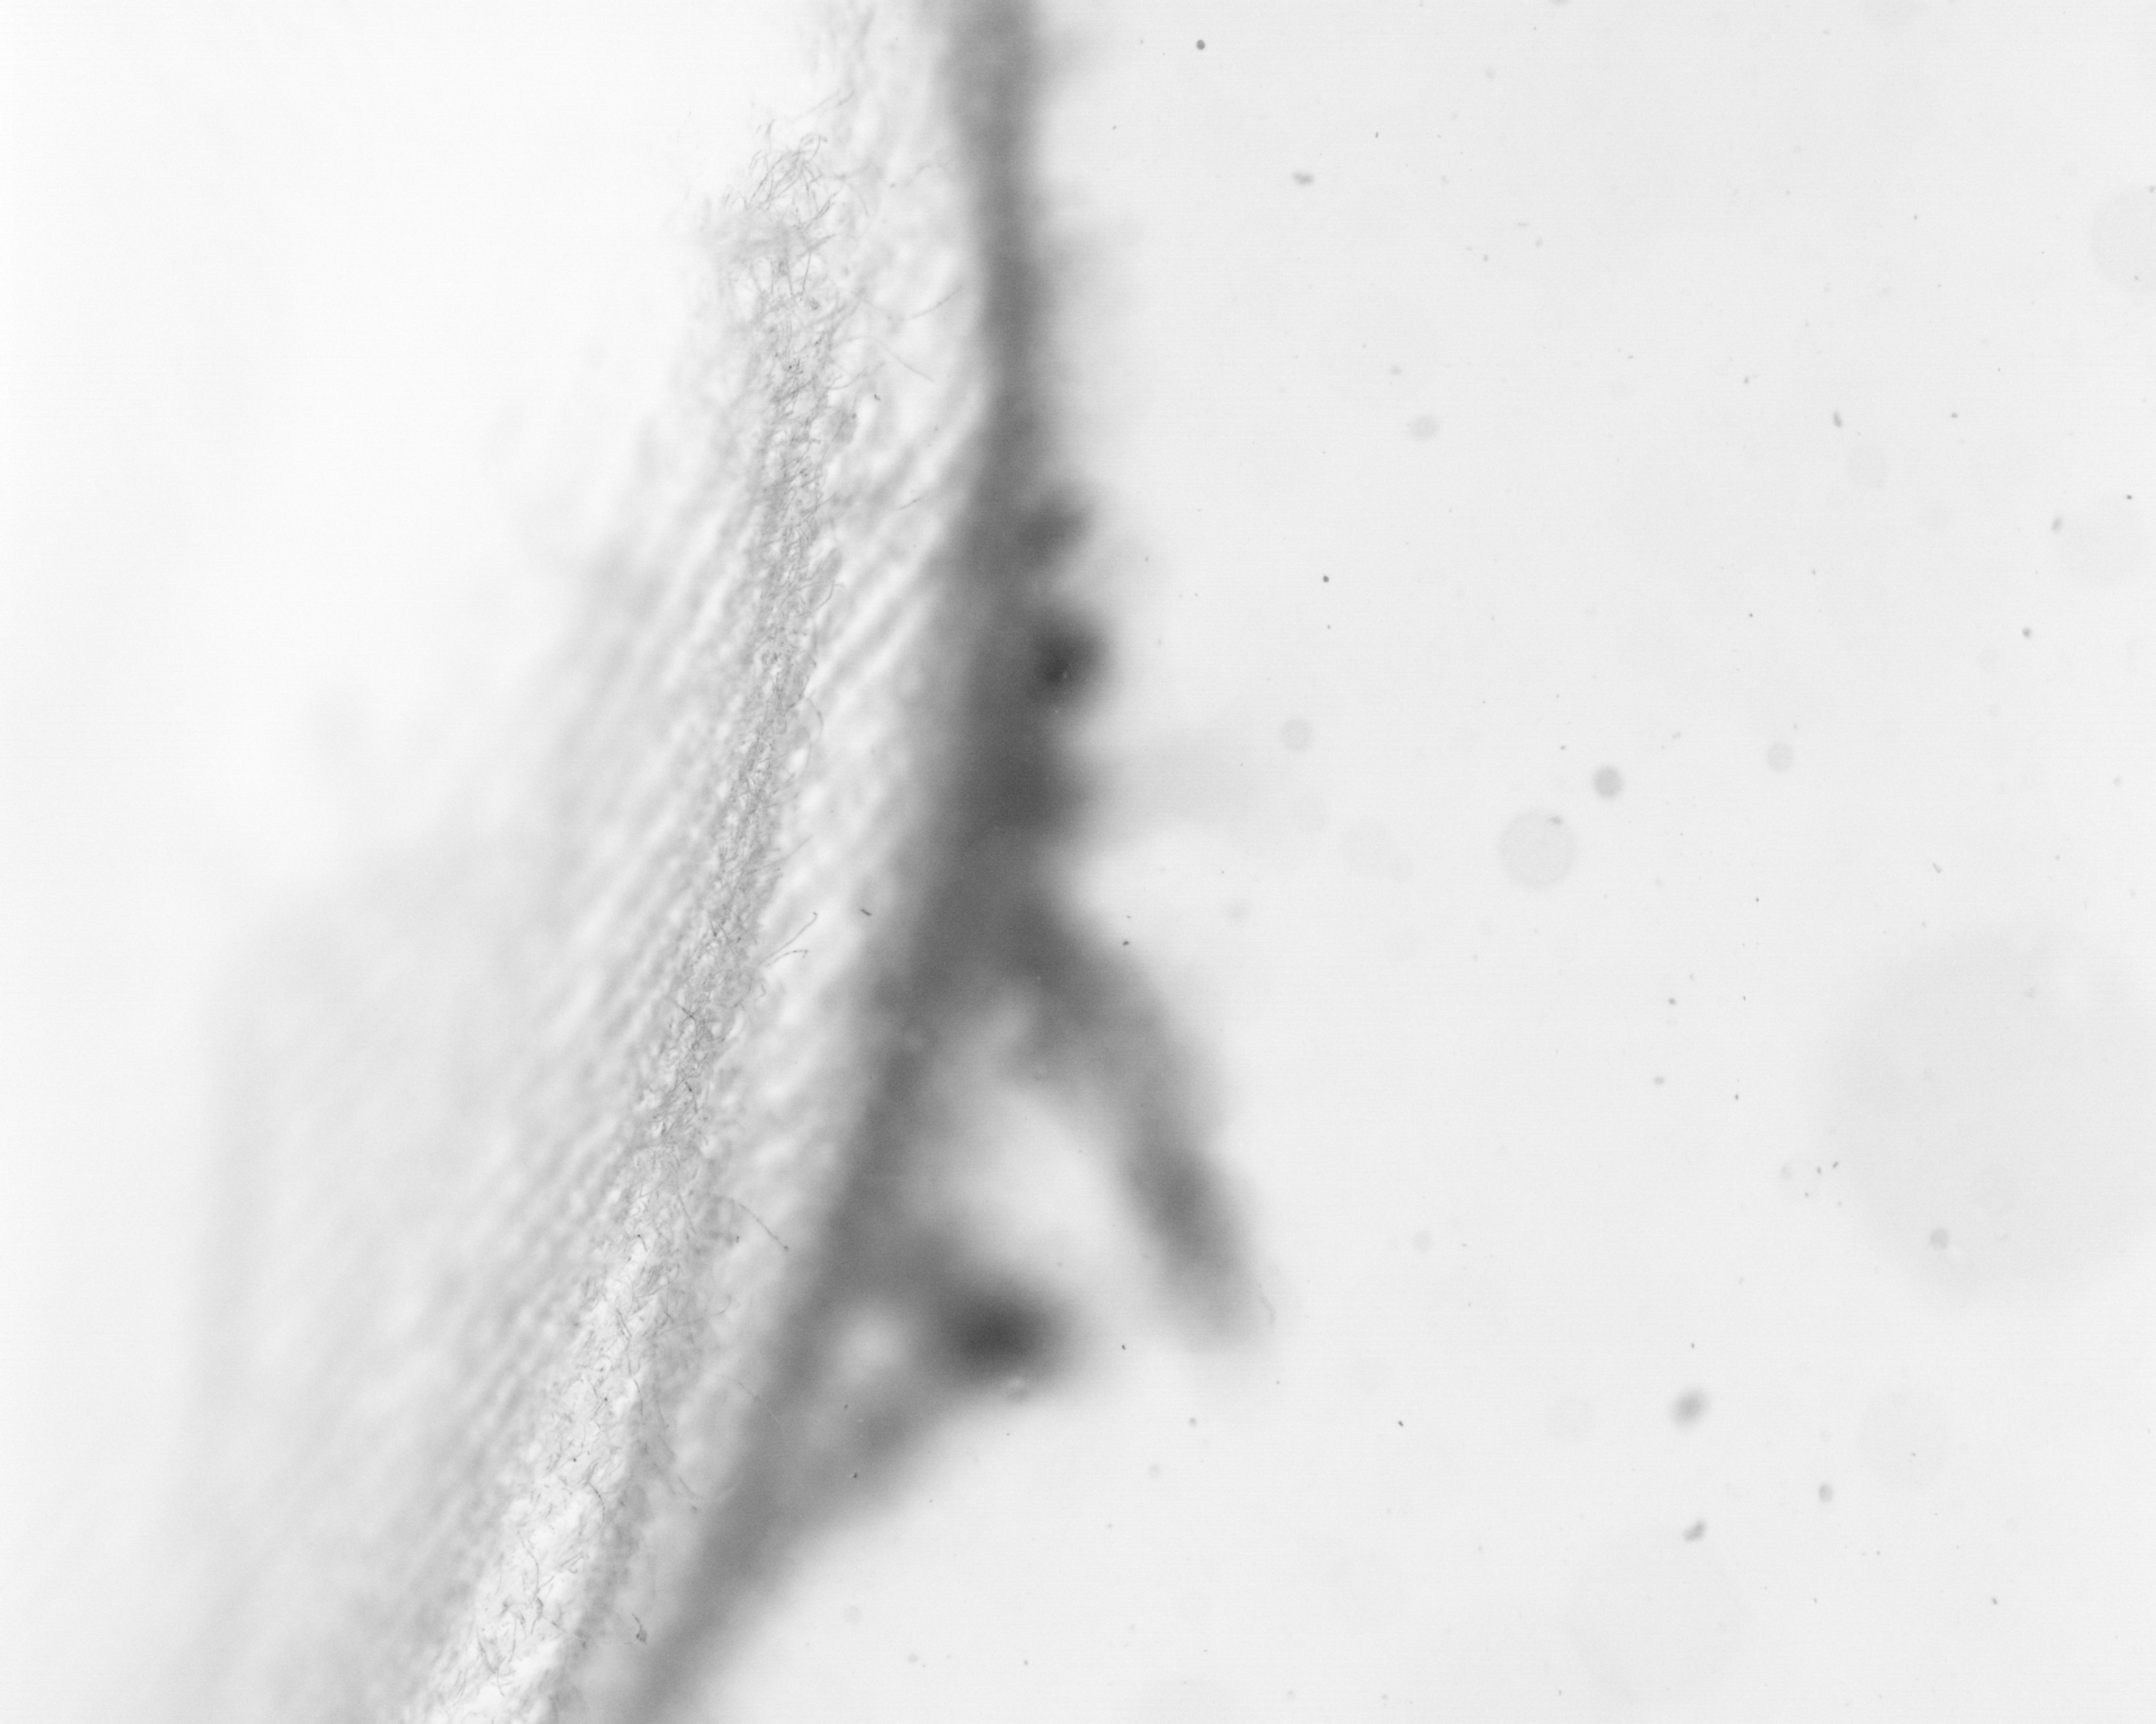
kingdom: Animalia
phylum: Chordata
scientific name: Chordata
